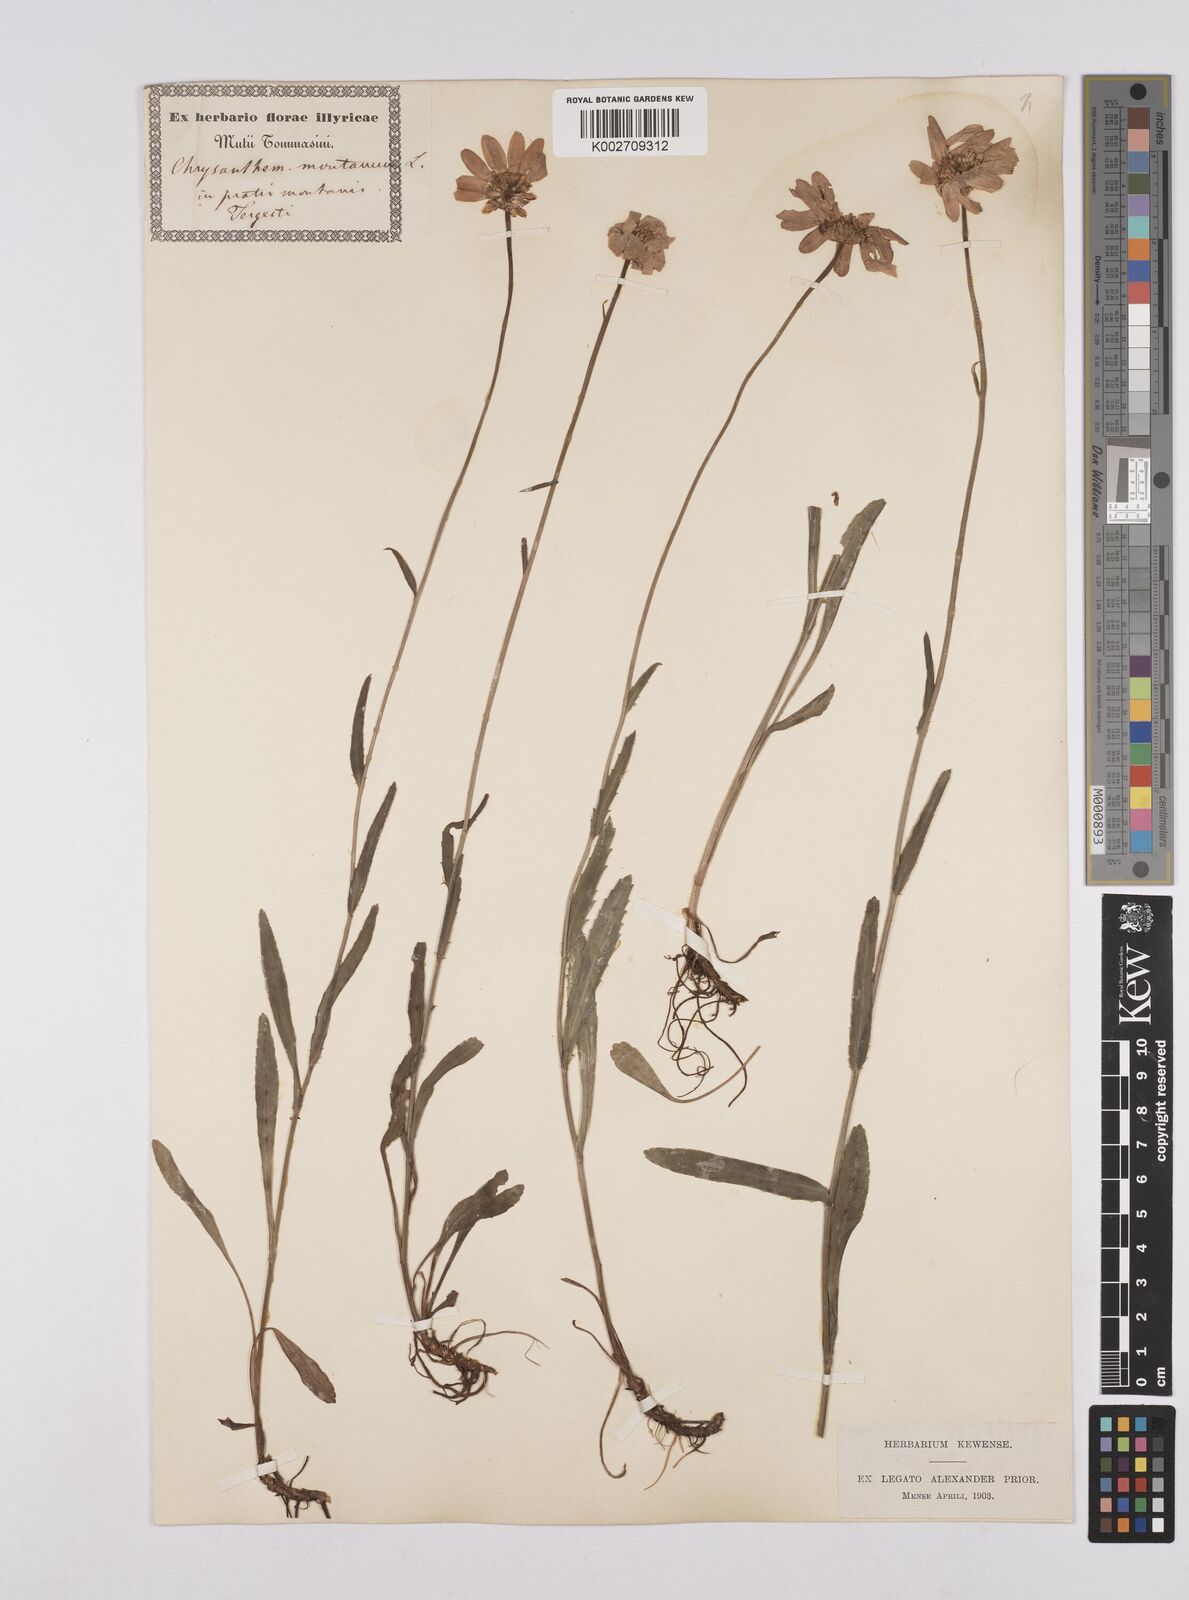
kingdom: Plantae
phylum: Tracheophyta
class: Magnoliopsida
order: Asterales
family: Asteraceae
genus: Leucanthemum
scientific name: Leucanthemum heterophyllum
